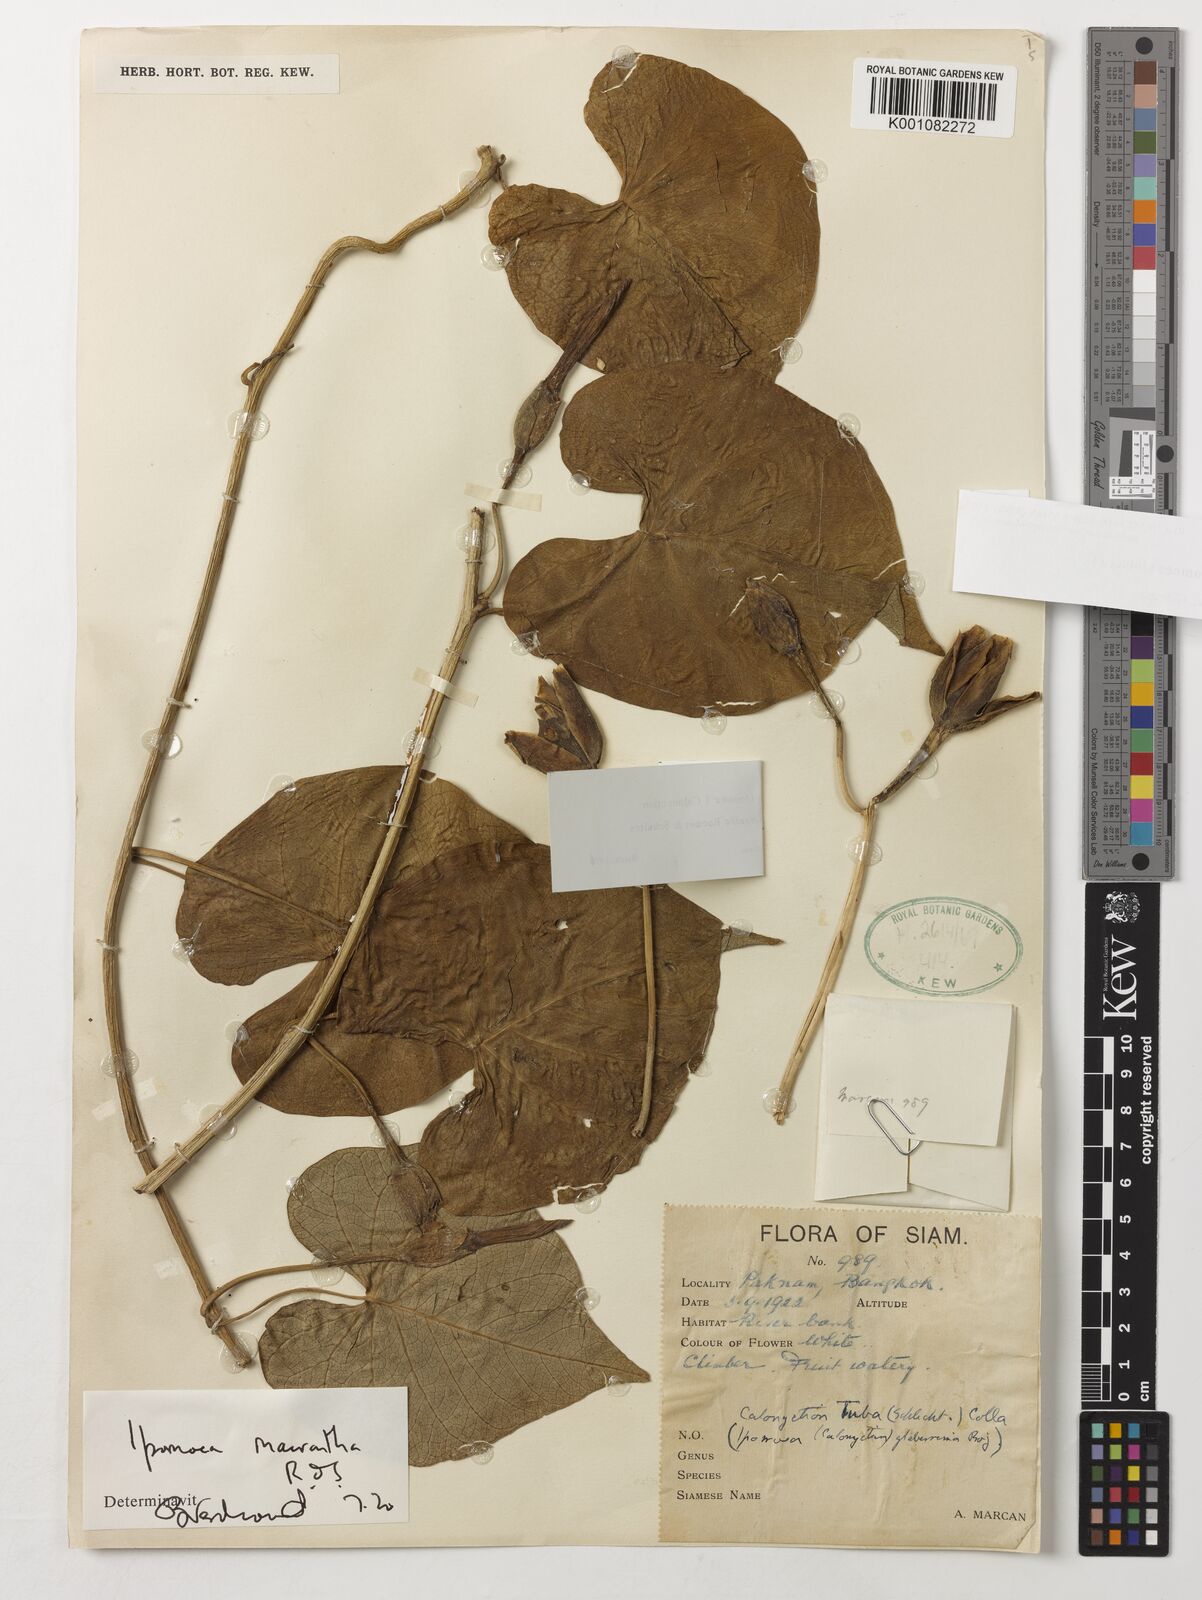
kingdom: Plantae
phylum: Tracheophyta
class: Magnoliopsida
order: Solanales
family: Convolvulaceae
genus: Ipomoea
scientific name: Ipomoea violacea
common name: Beach moonflower
